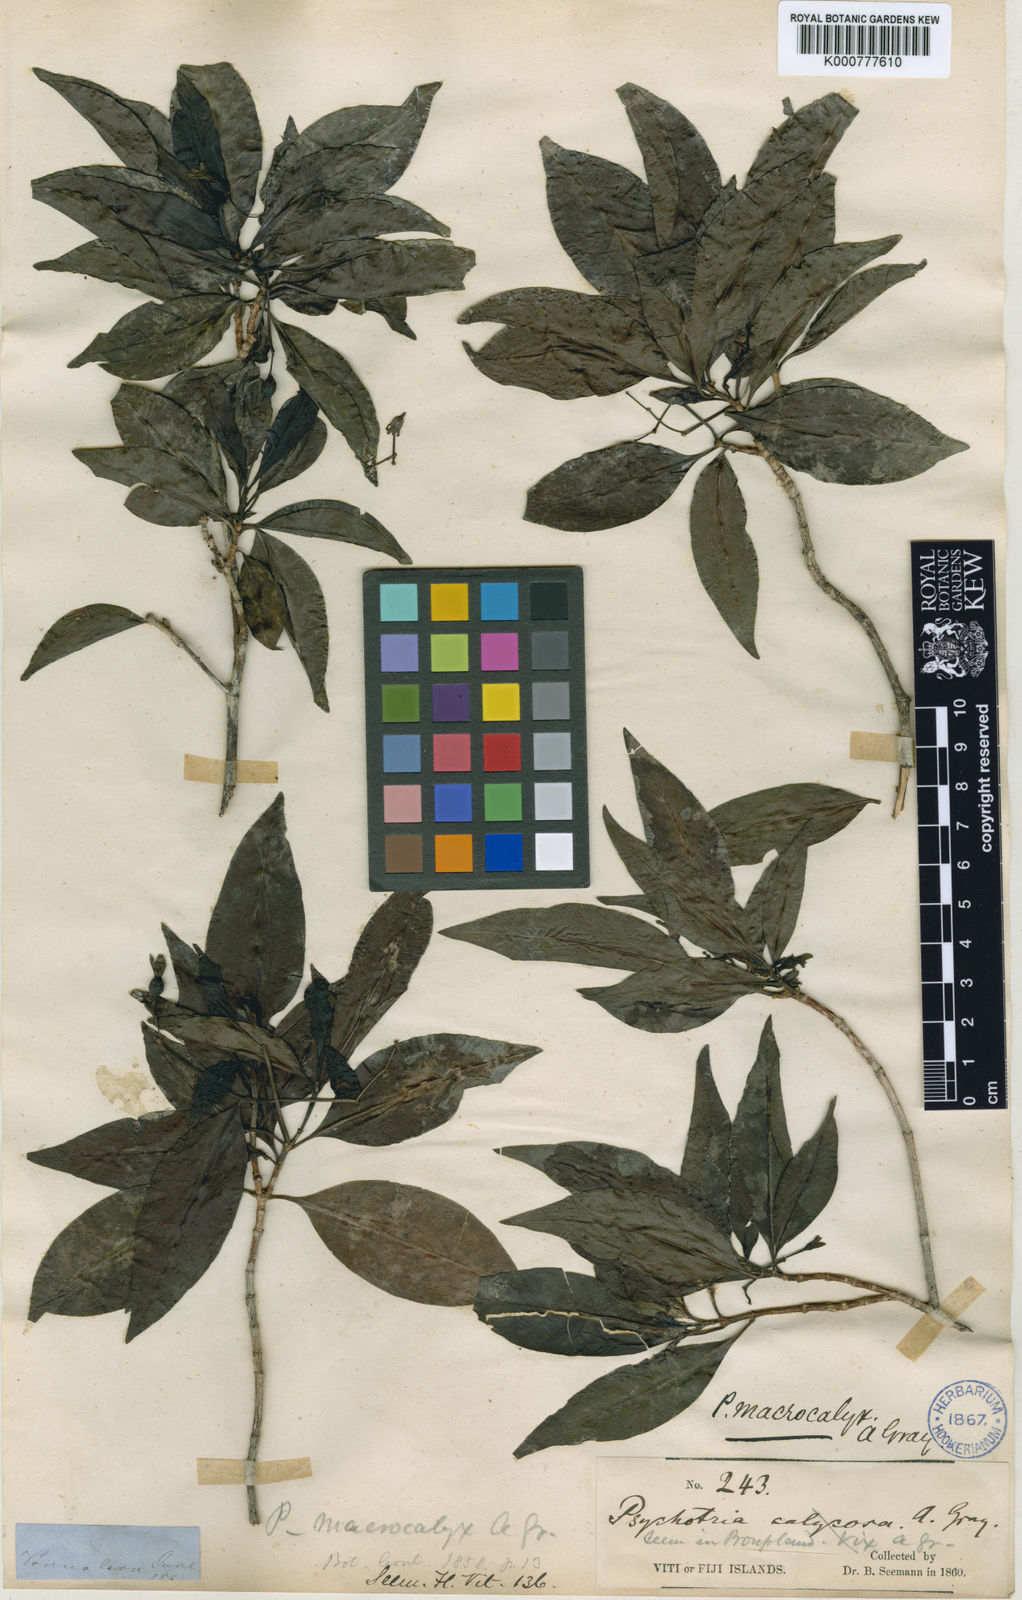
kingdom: Plantae
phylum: Tracheophyta
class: Magnoliopsida
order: Gentianales
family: Rubiaceae
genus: Psychotria
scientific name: Psychotria macrocalyx
